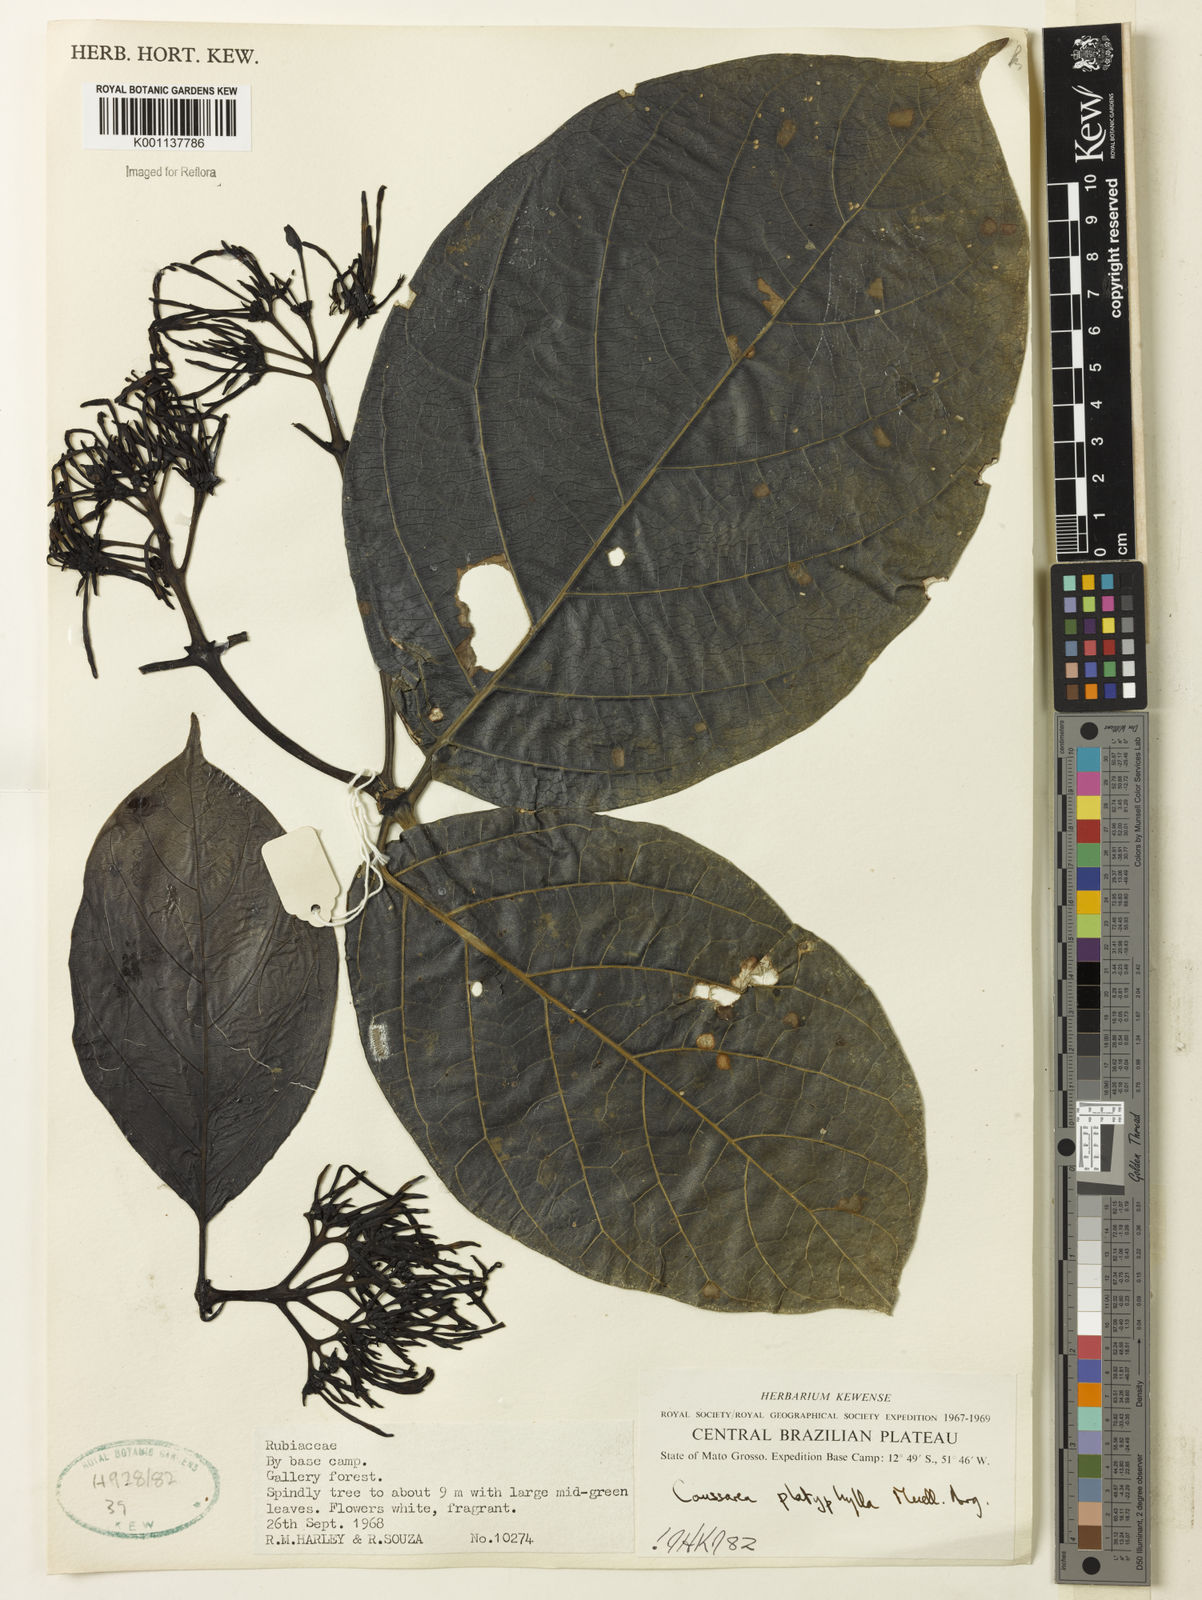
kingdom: Plantae
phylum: Tracheophyta
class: Magnoliopsida
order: Gentianales
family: Rubiaceae
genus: Coussarea
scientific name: Coussarea
